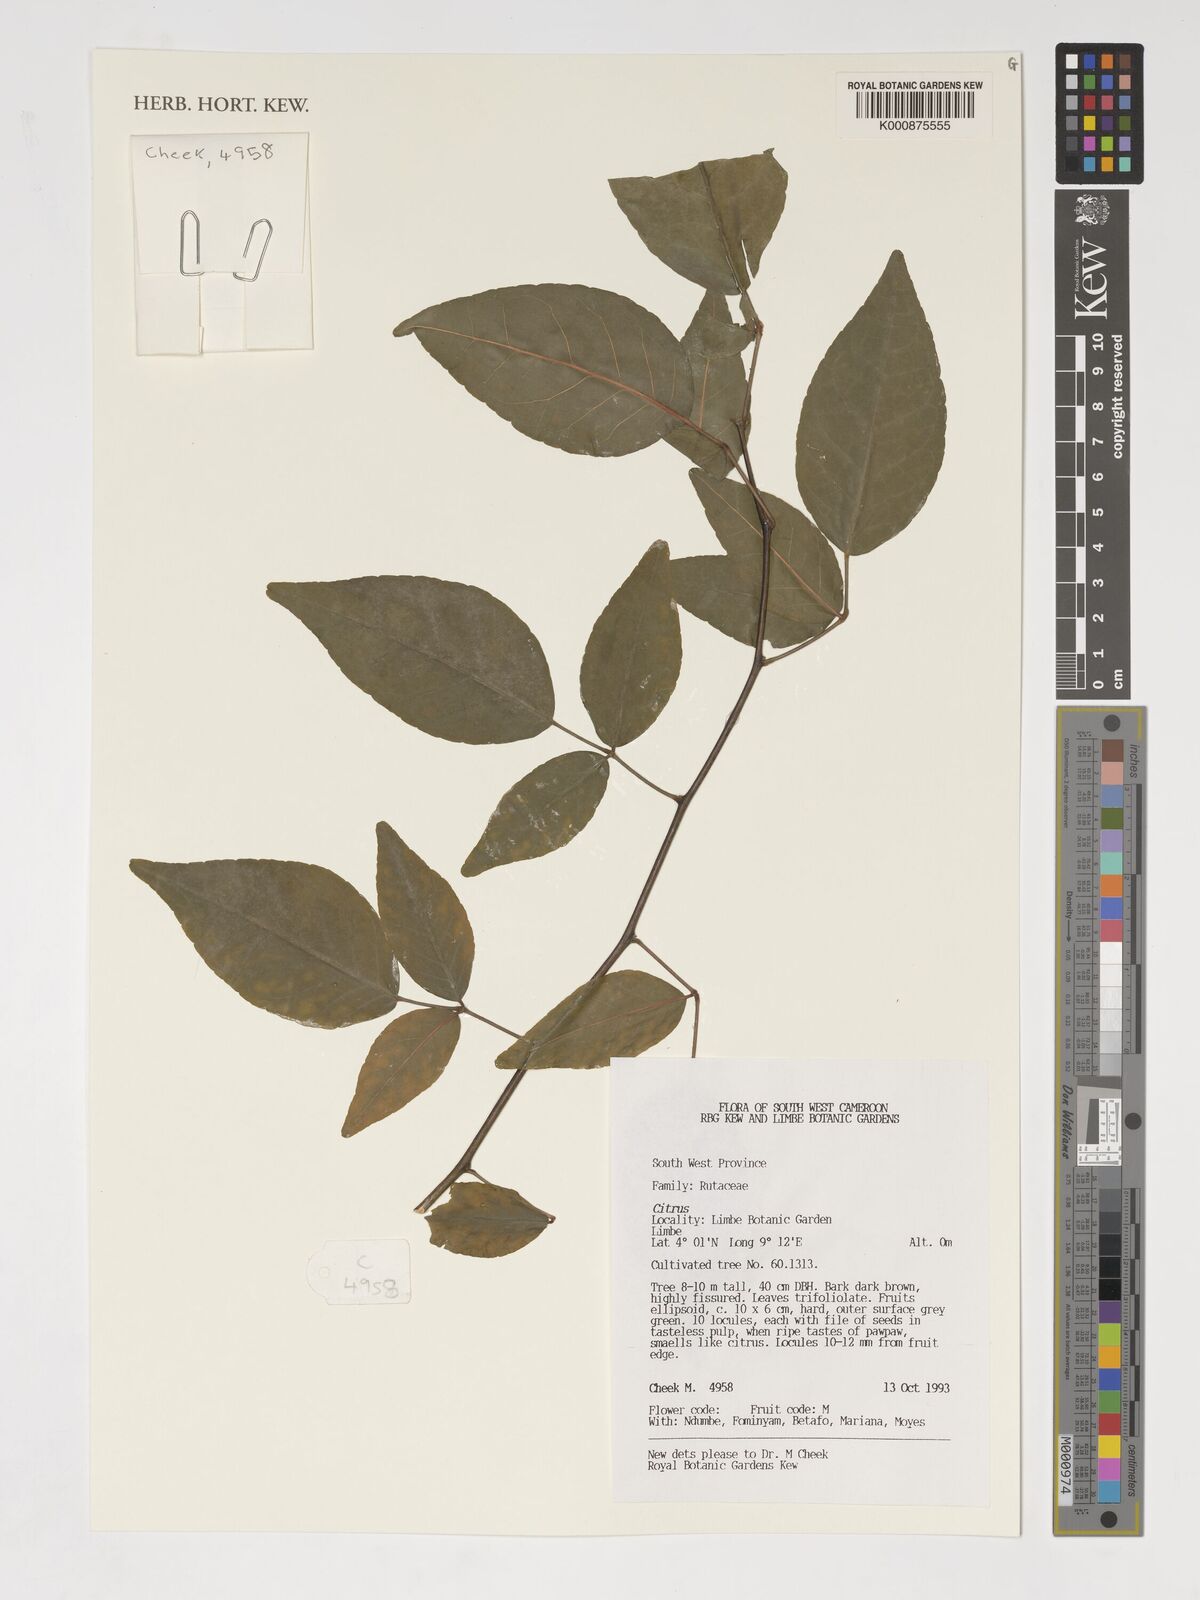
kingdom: Plantae
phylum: Tracheophyta
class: Magnoliopsida
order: Sapindales
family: Rutaceae
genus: Citrus
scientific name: Citrus
